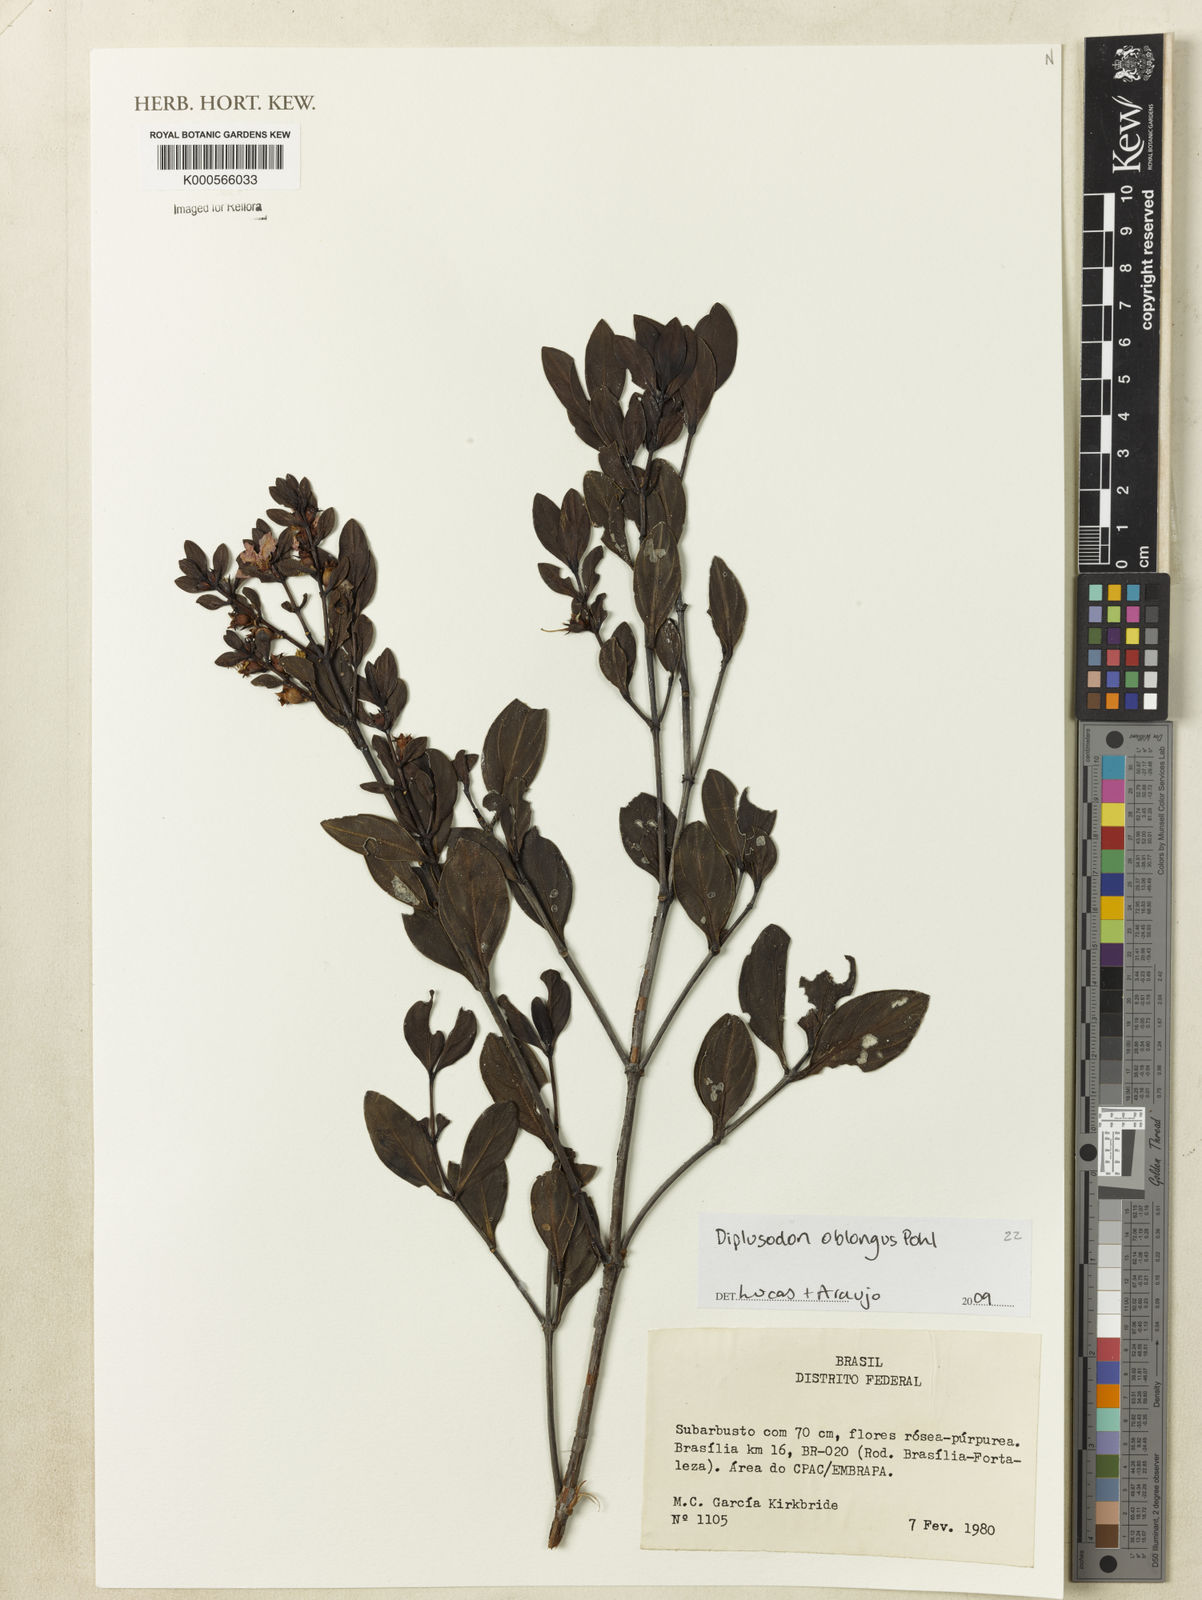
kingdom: Plantae
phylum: Tracheophyta
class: Magnoliopsida
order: Myrtales
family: Lythraceae
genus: Diplusodon
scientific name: Diplusodon oblongus
